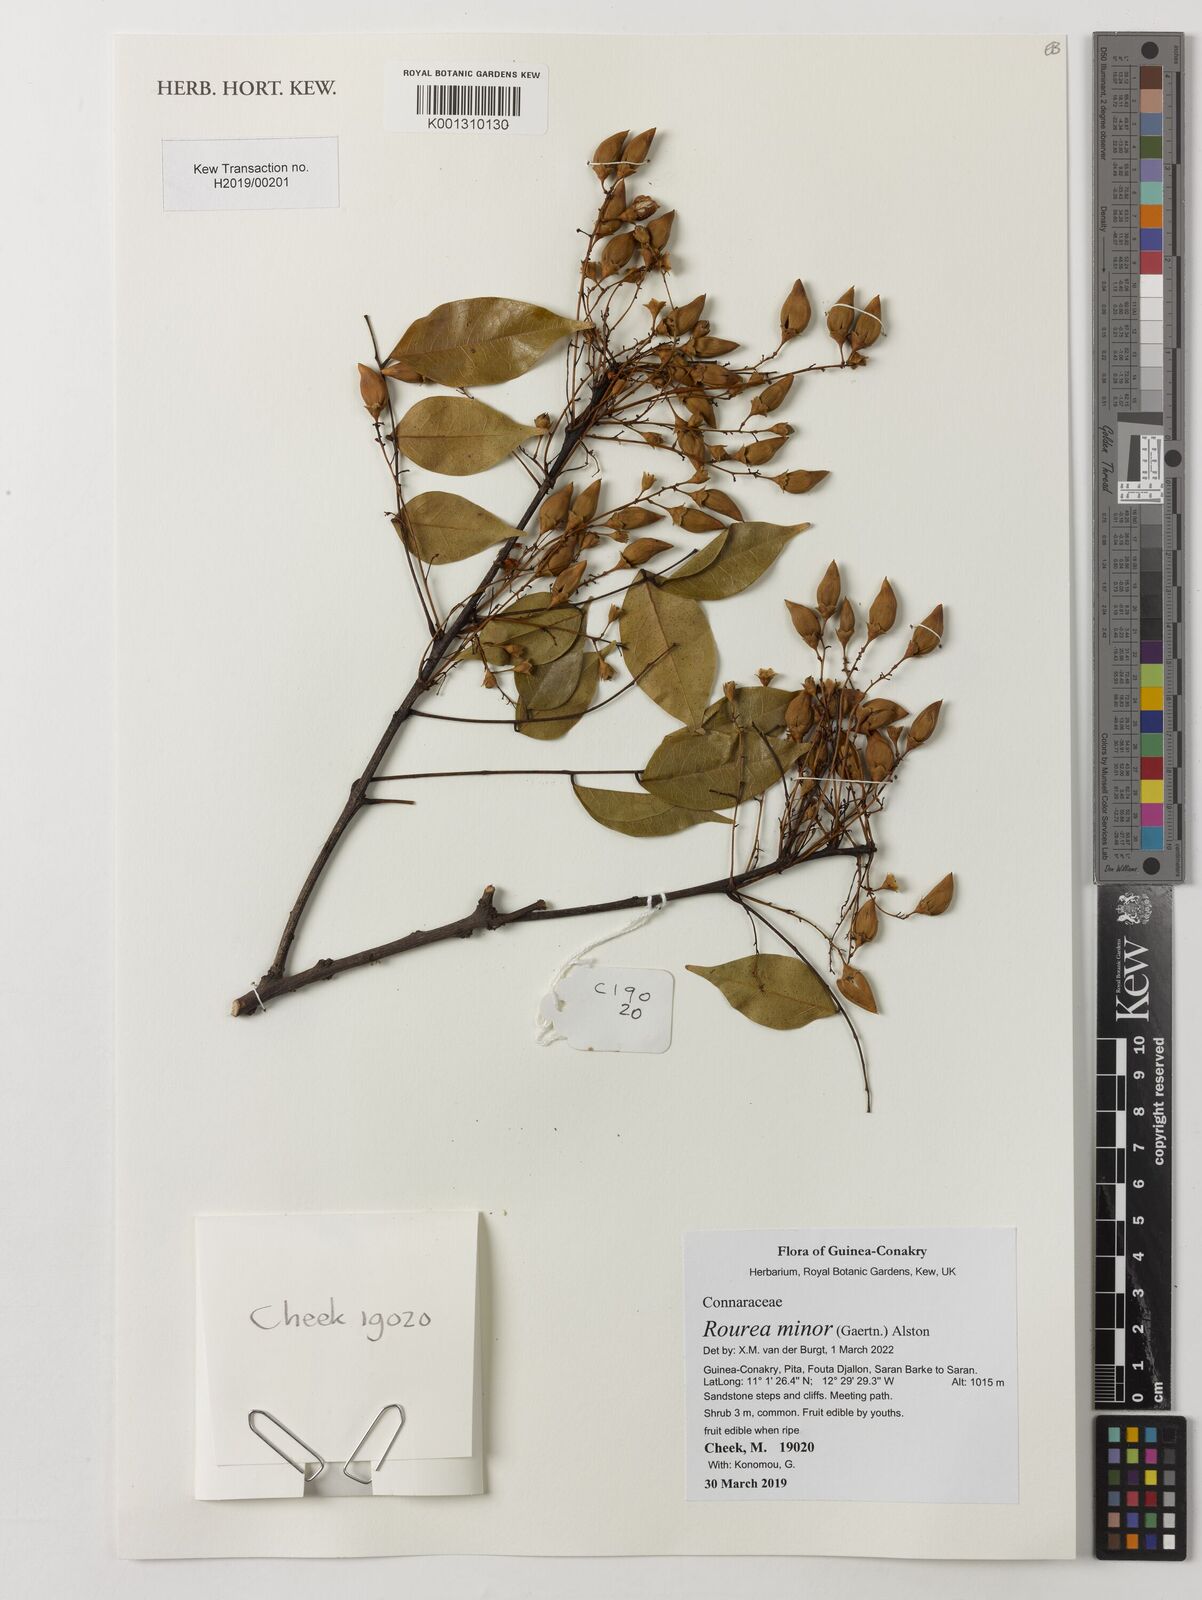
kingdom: Plantae
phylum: Tracheophyta
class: Magnoliopsida
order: Oxalidales
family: Connaraceae
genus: Rourea
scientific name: Rourea minor
